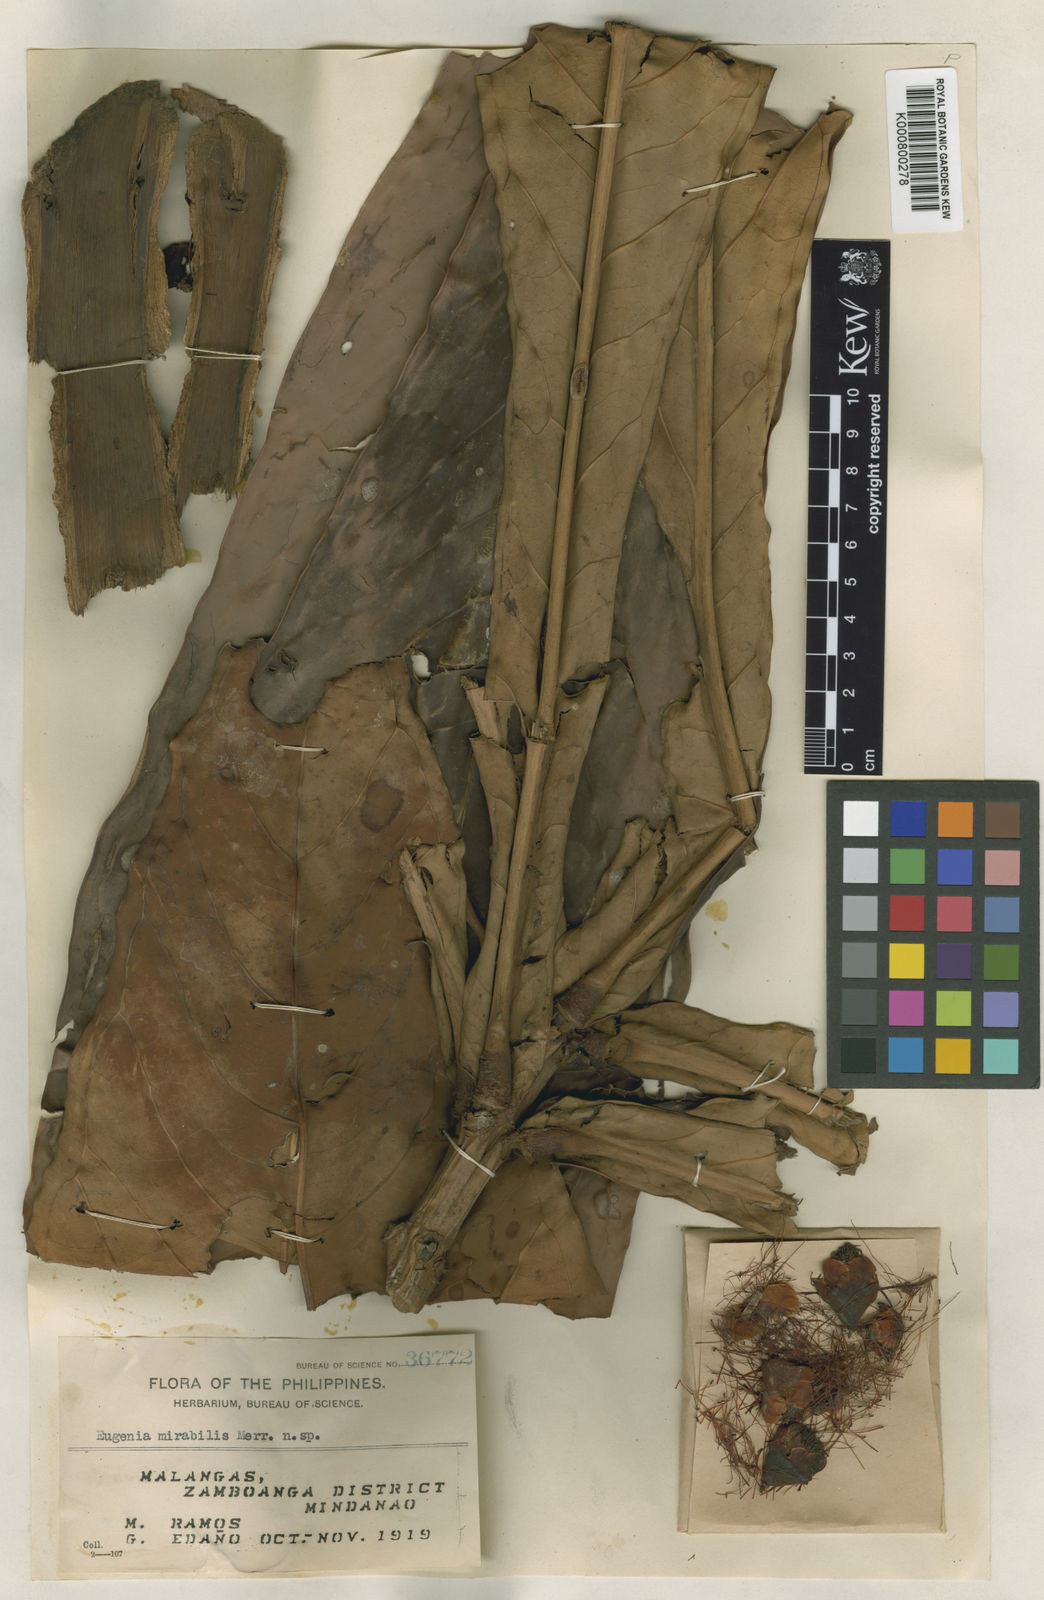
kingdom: Plantae
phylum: Tracheophyta
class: Magnoliopsida
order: Myrtales
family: Myrtaceae
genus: Syzygium
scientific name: Syzygium mirabile
